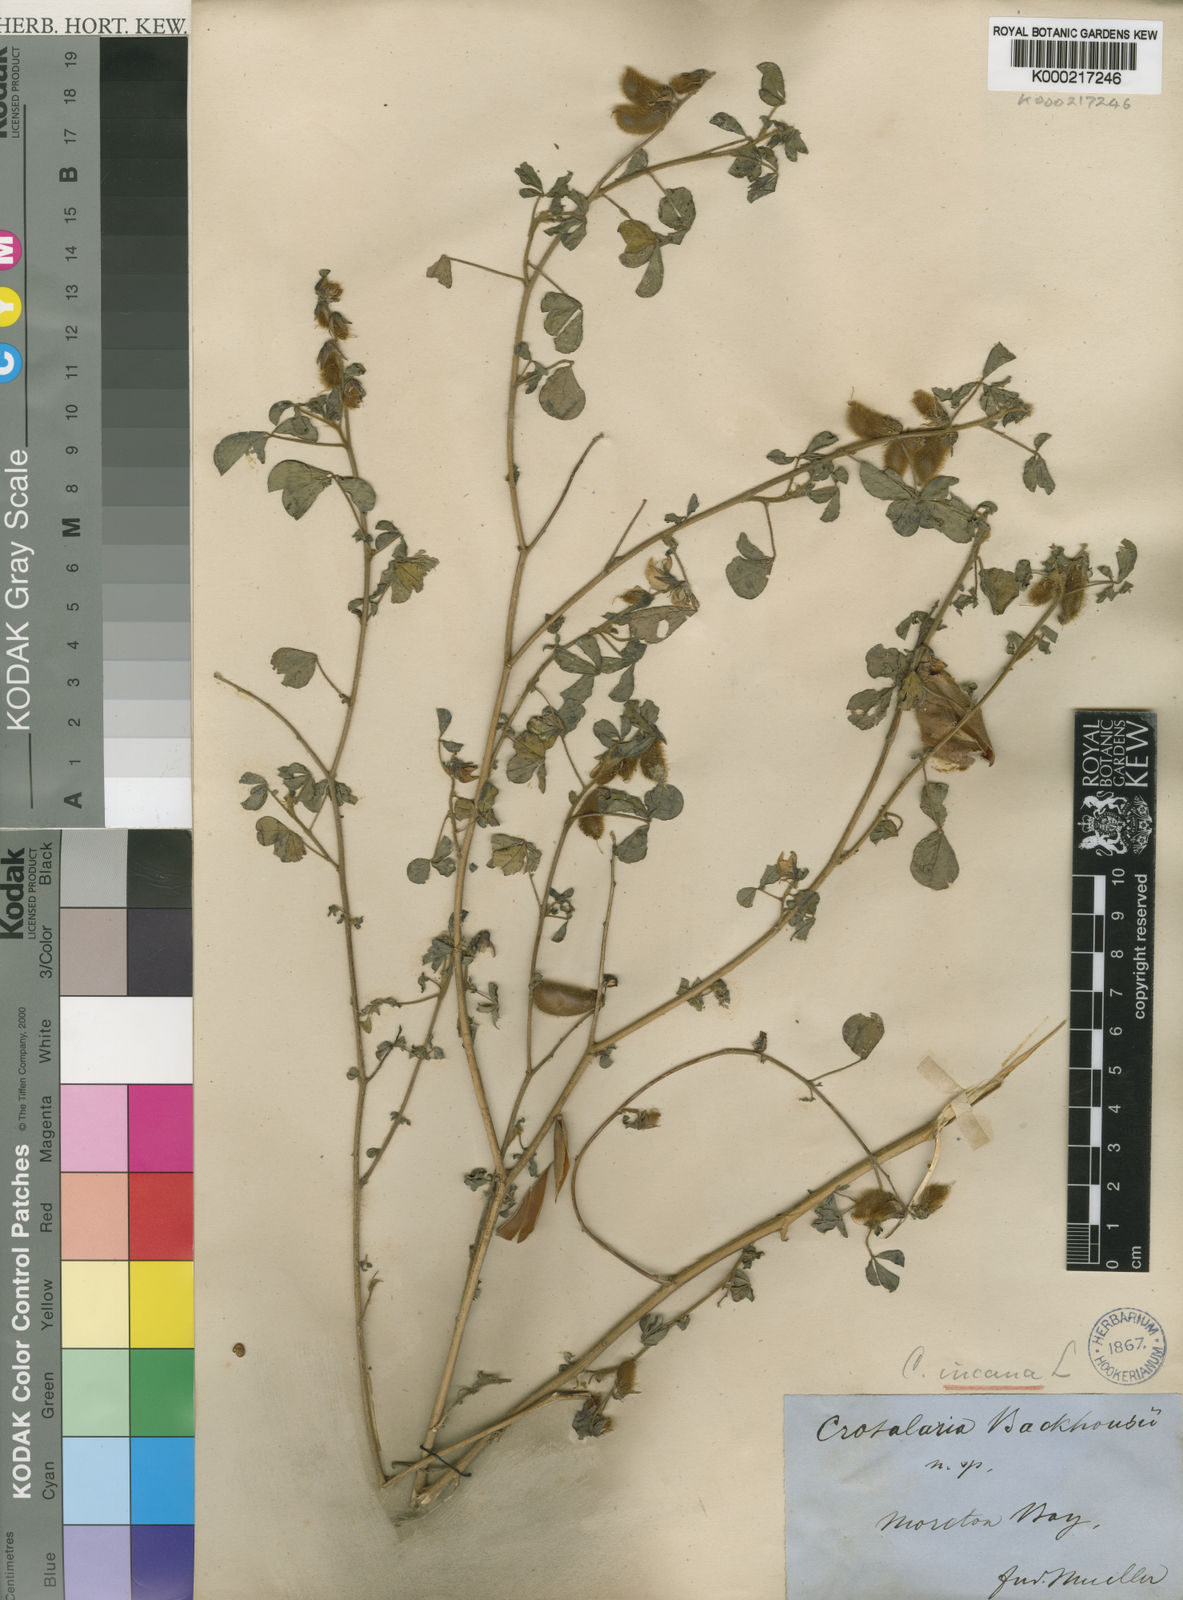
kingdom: Plantae
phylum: Tracheophyta
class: Magnoliopsida
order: Fabales
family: Fabaceae
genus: Crotalaria
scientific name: Crotalaria incana
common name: Shakeshake
